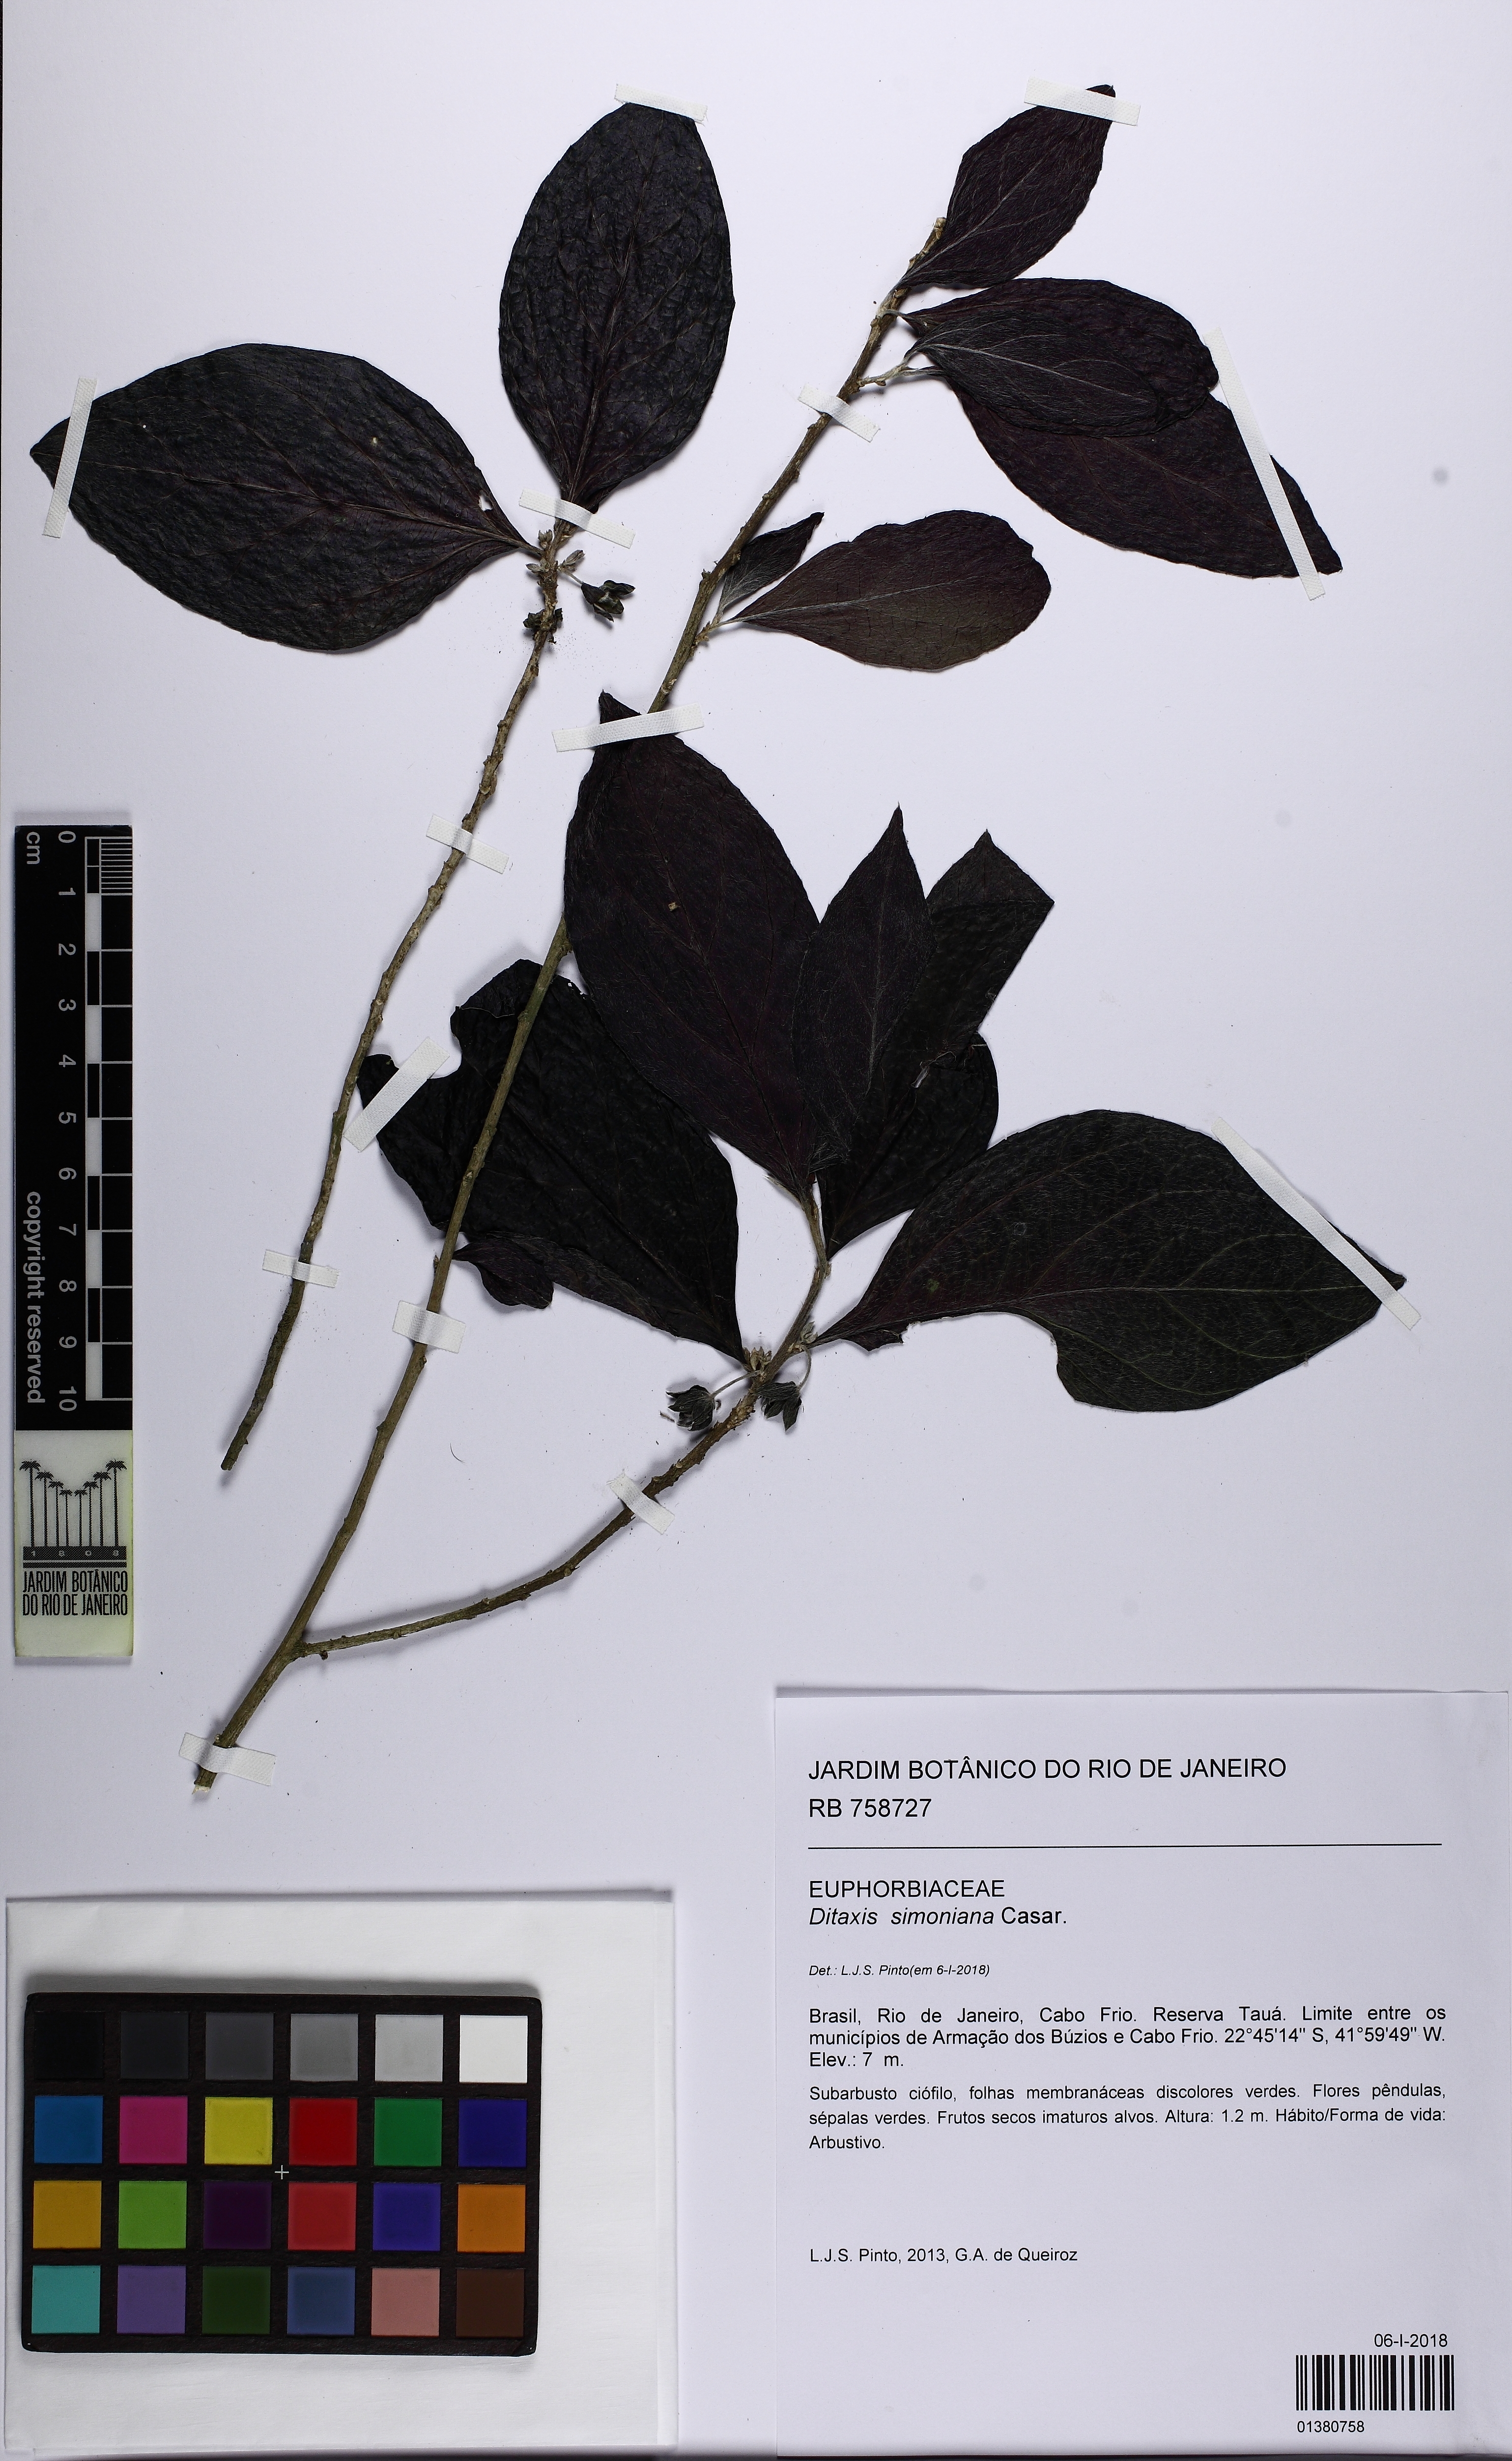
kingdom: Plantae
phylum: Tracheophyta
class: Magnoliopsida
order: Malpighiales
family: Euphorbiaceae
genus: Ditaxis
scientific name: Ditaxis simoniana
